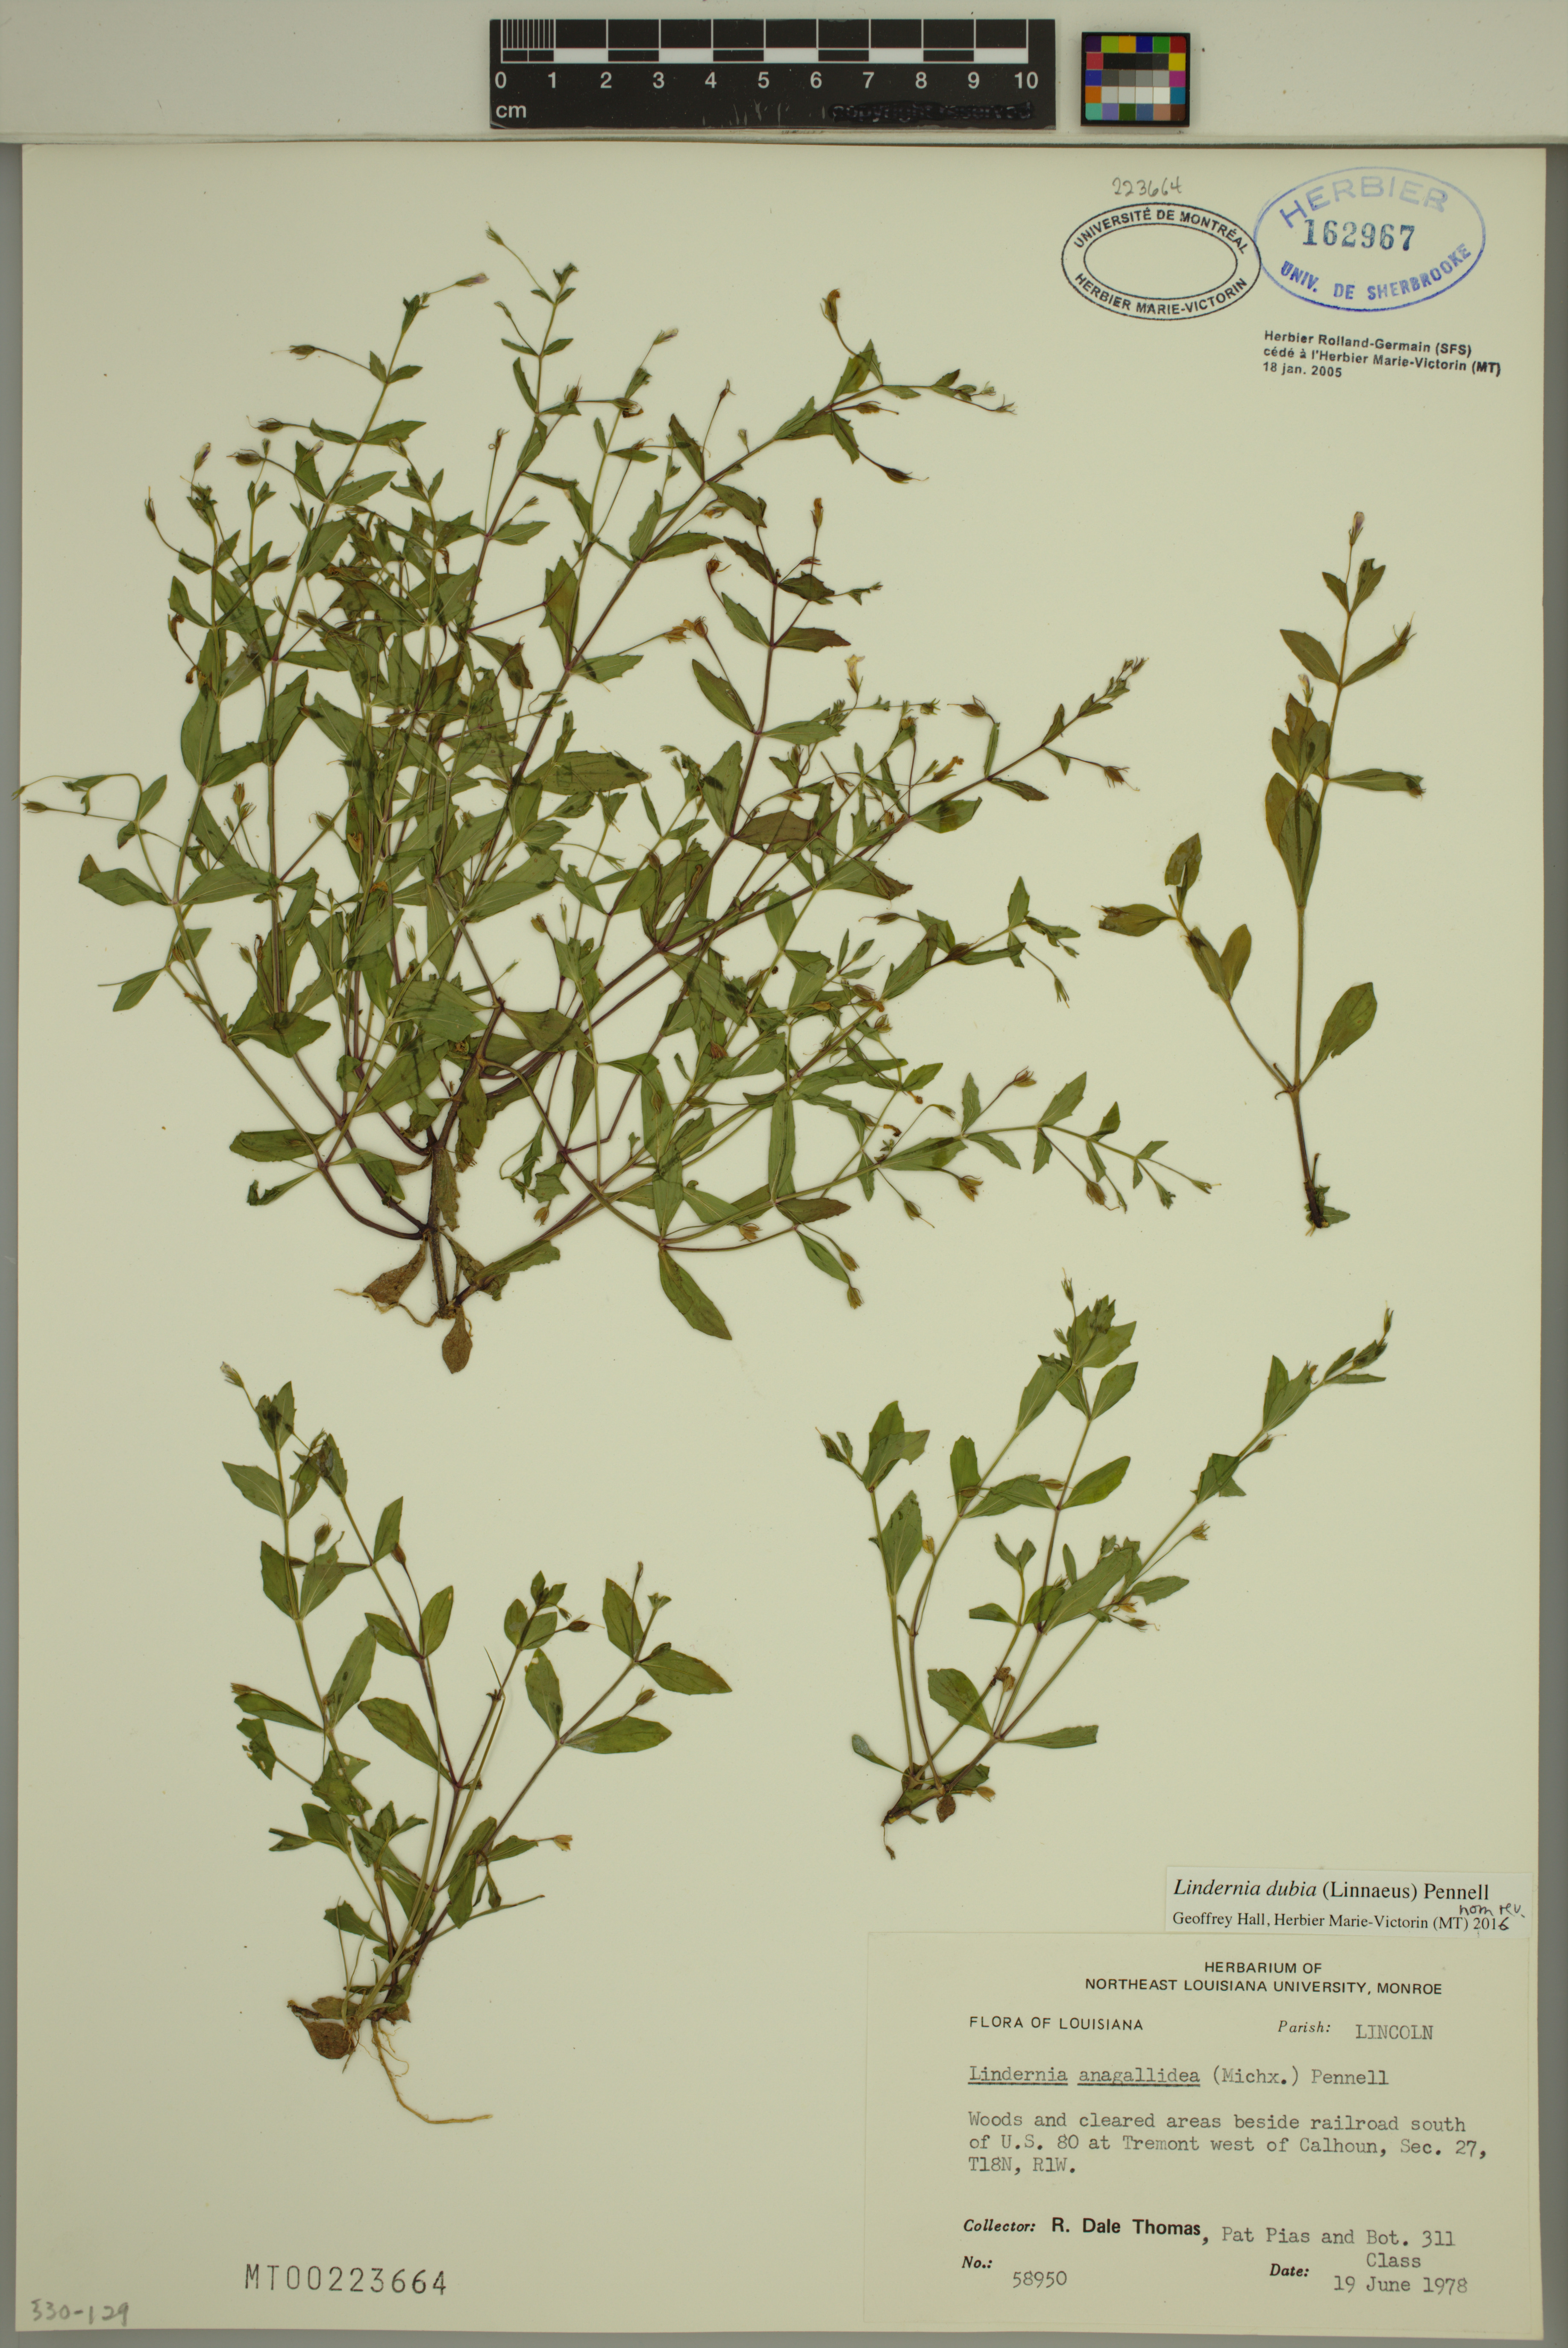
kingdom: Plantae
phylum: Tracheophyta
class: Magnoliopsida
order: Lamiales
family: Linderniaceae
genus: Lindernia
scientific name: Lindernia dubia
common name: Annual false pimpernel
